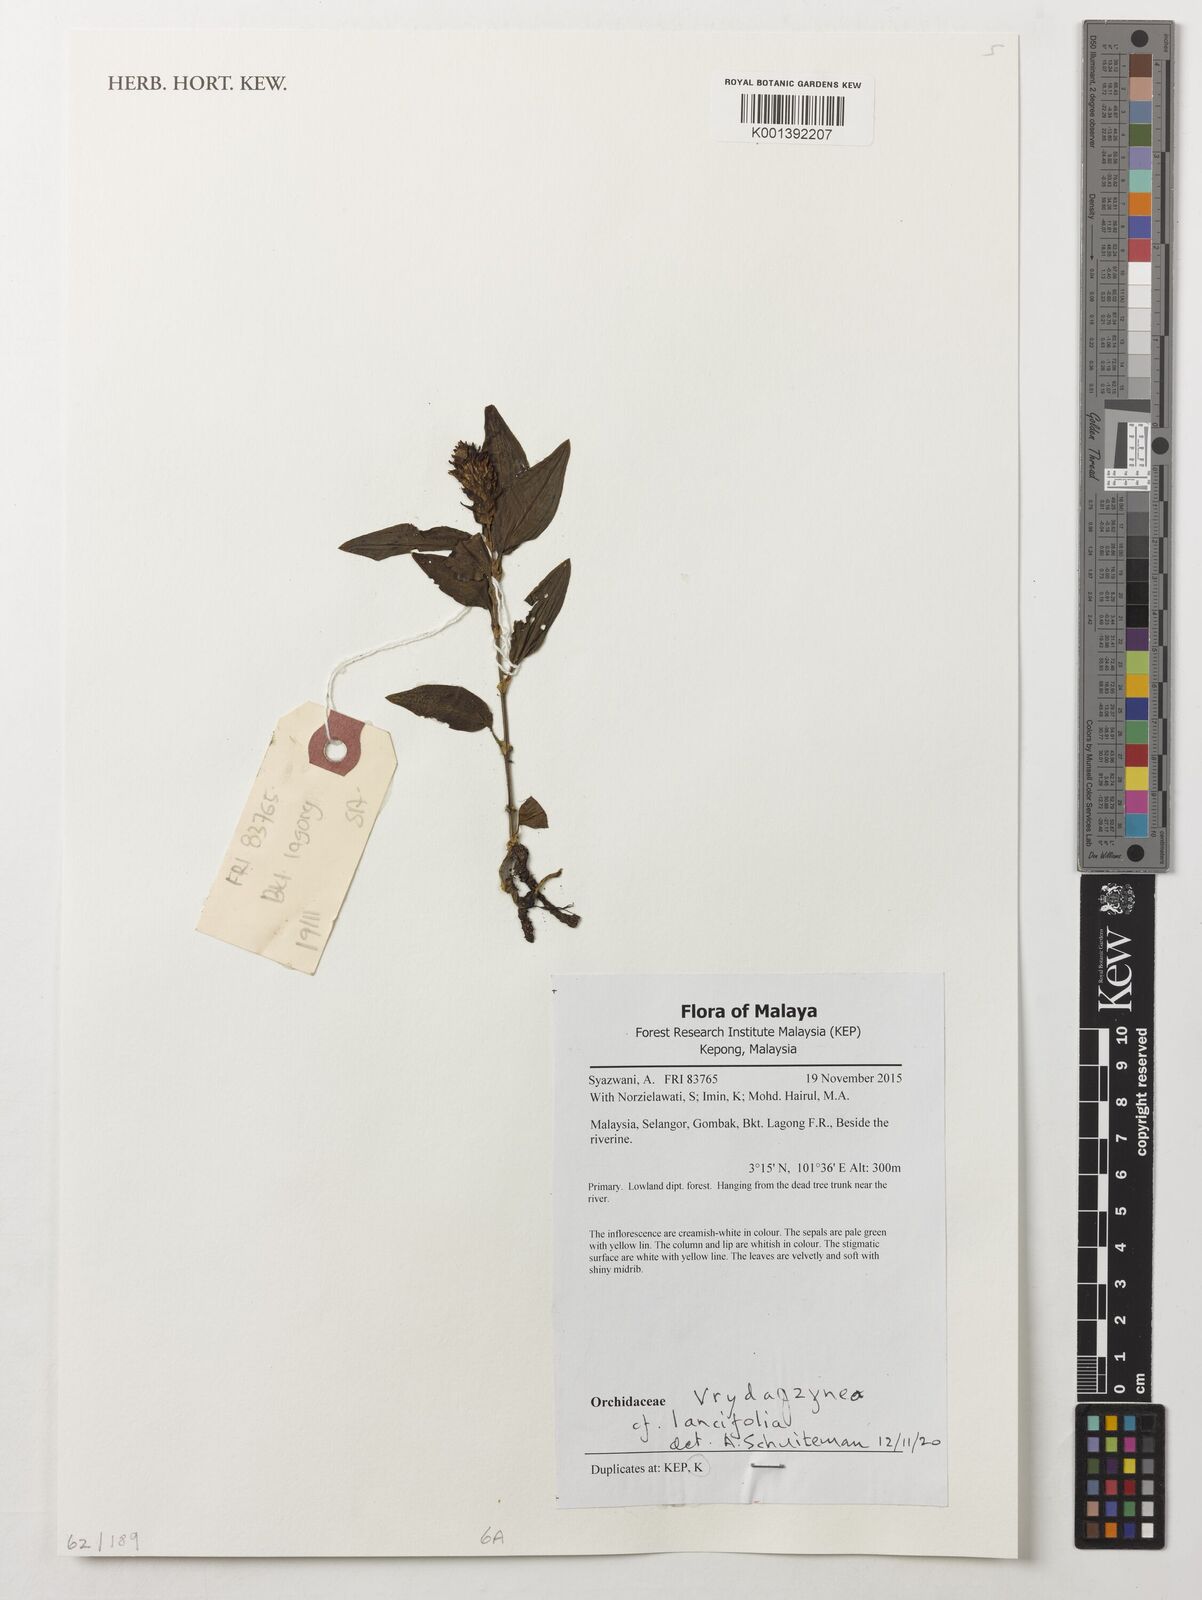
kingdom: Plantae
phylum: Tracheophyta
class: Liliopsida
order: Asparagales
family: Orchidaceae
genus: Vrydagzynea
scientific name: Vrydagzynea lancifolia
